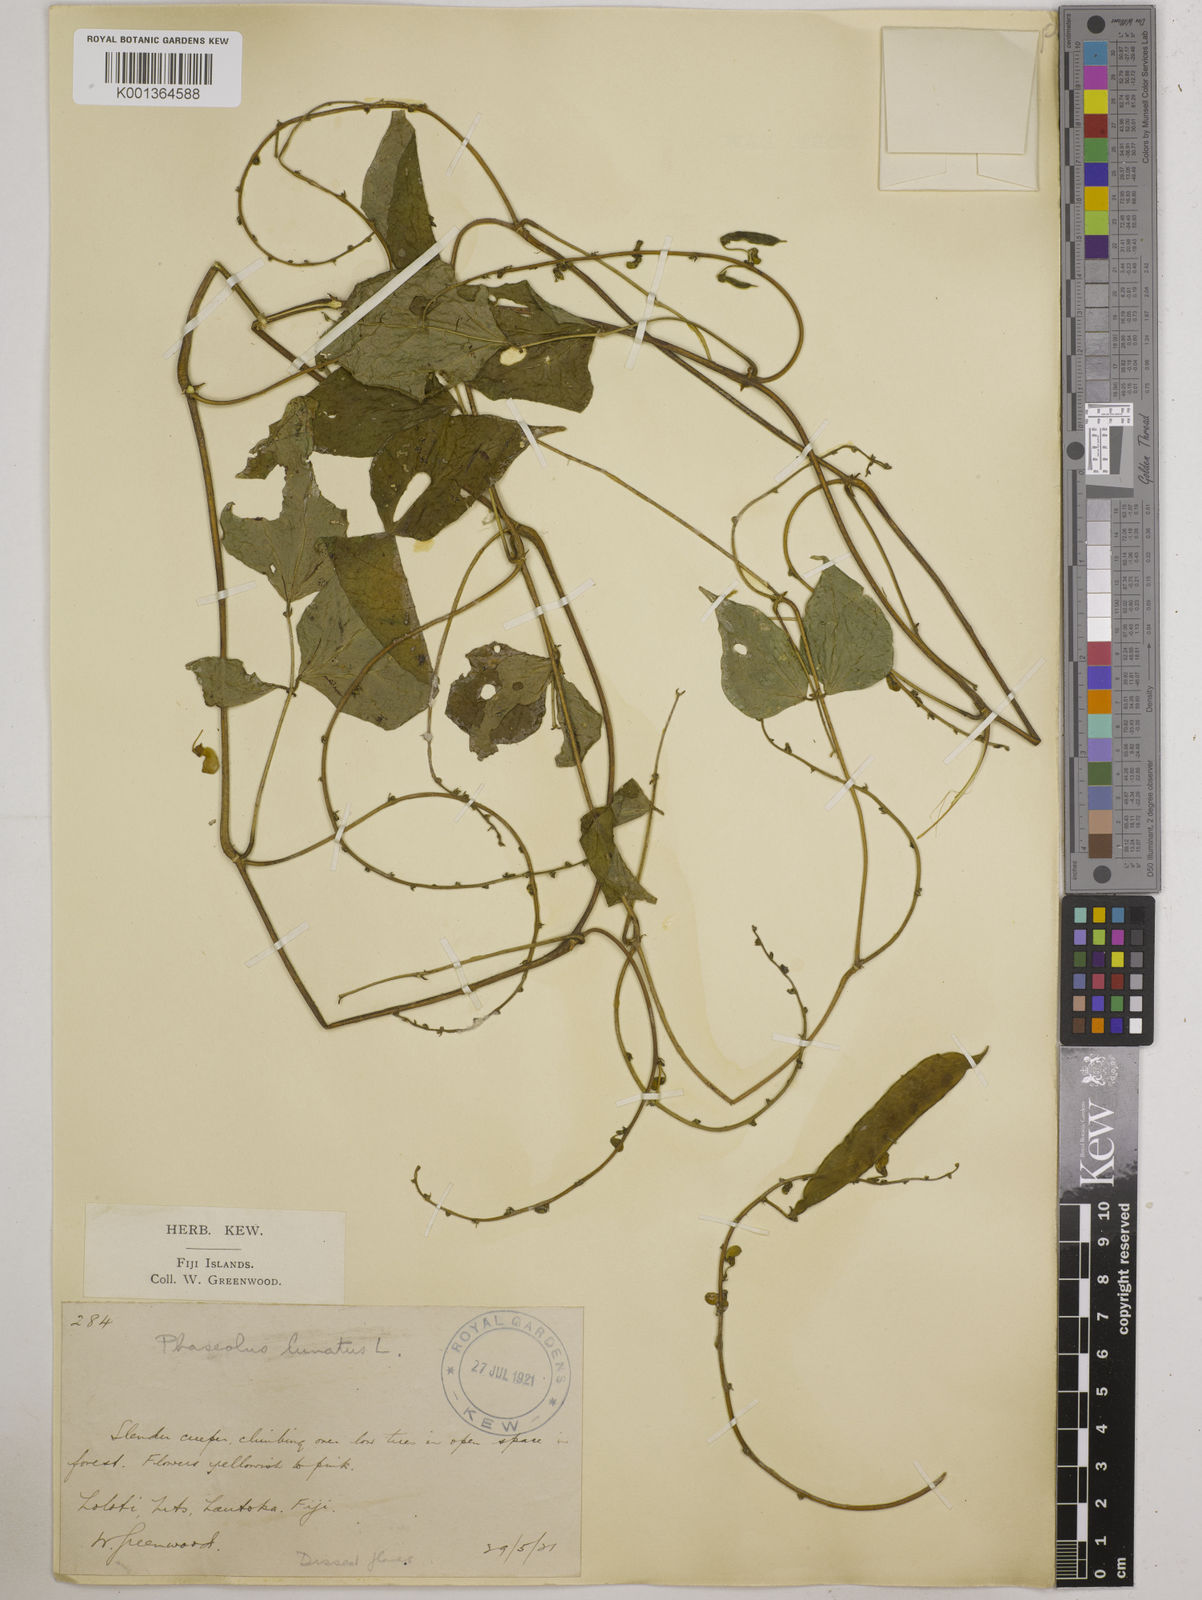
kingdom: Plantae
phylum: Tracheophyta
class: Magnoliopsida
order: Fabales
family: Fabaceae
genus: Phaseolus
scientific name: Phaseolus lunatus
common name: Sieva bean
